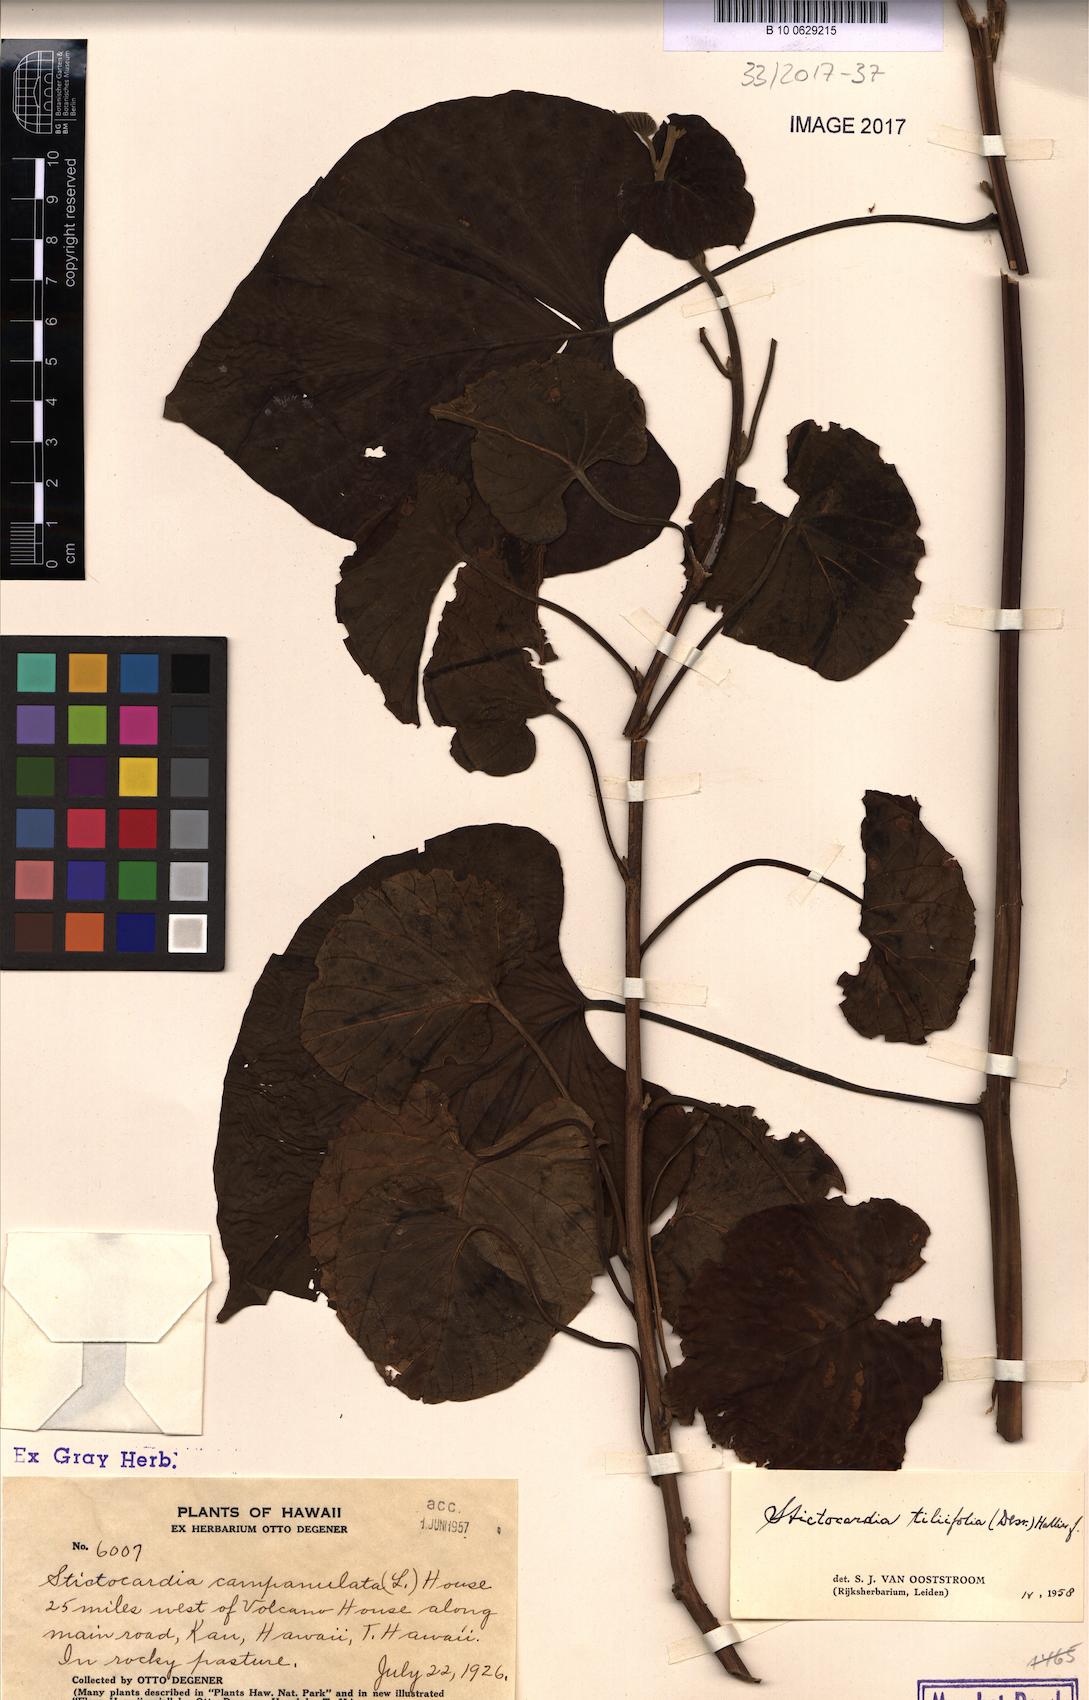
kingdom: Plantae
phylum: Tracheophyta
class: Magnoliopsida
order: Solanales
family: Convolvulaceae
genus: Stictocardia
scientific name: Stictocardia tiliifolia
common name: Spottedheart
